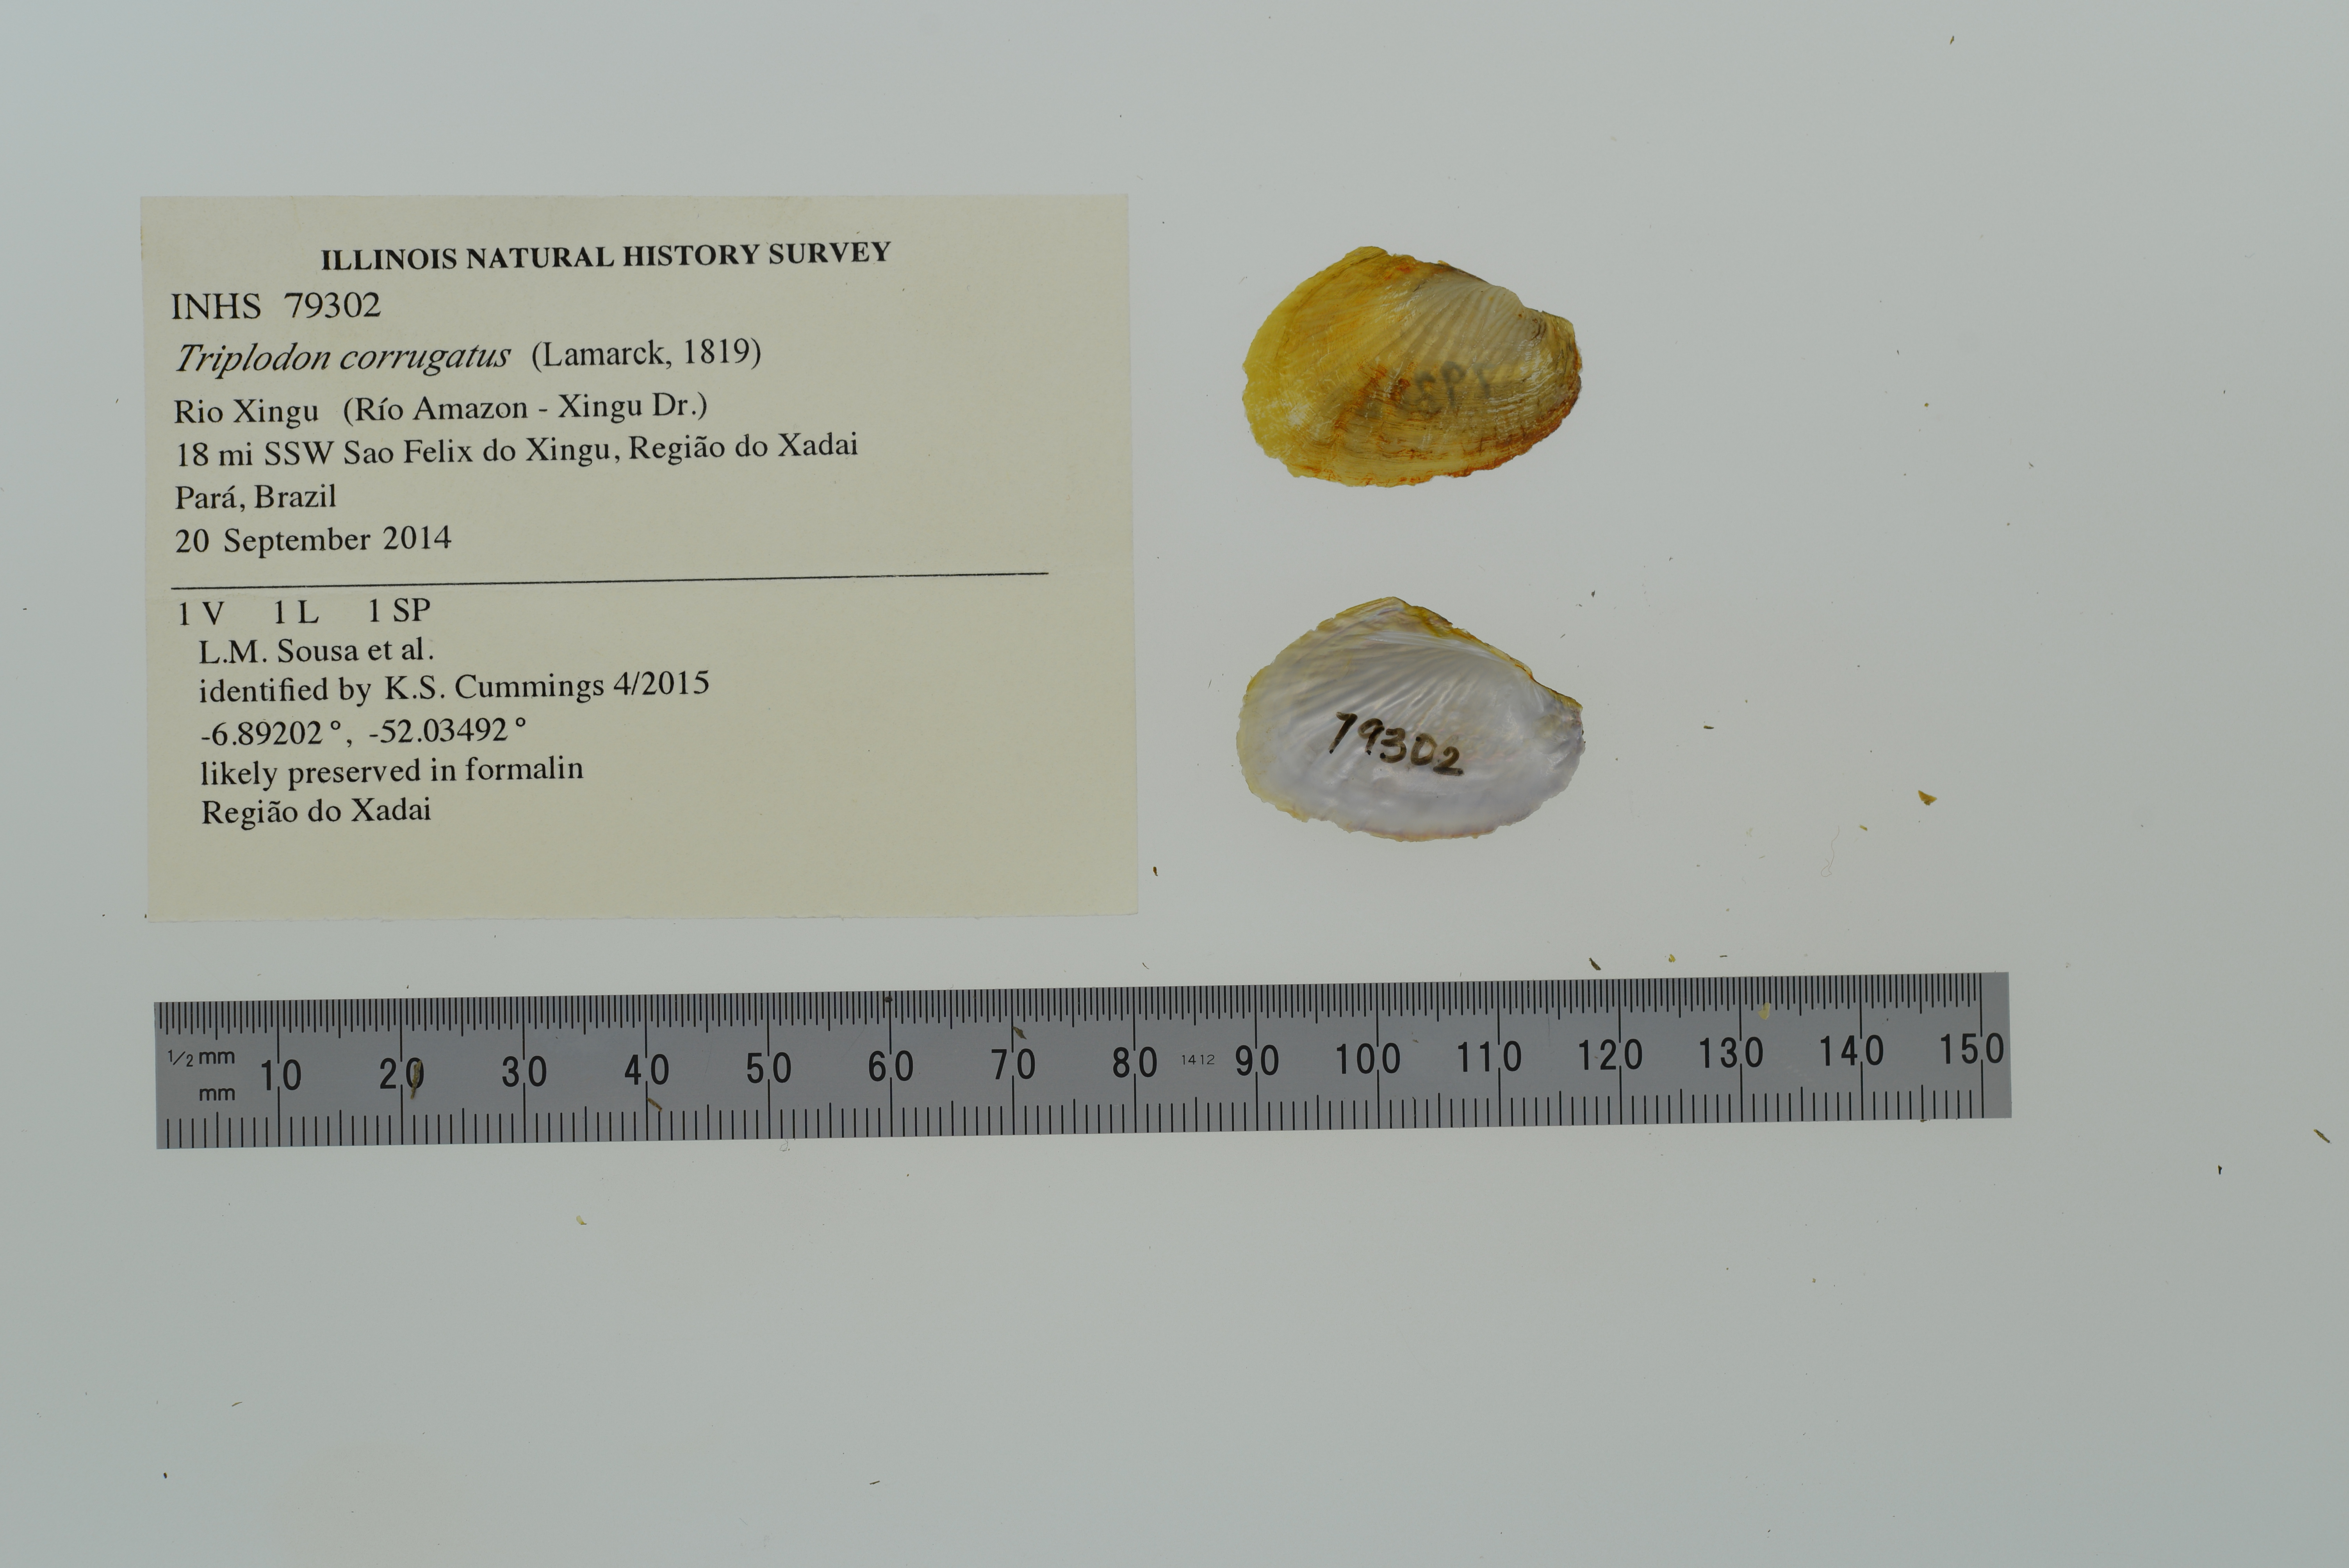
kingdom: Animalia
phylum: Mollusca
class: Bivalvia
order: Unionida
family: Hyriidae
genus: Triplodon
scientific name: Triplodon corrugatus
